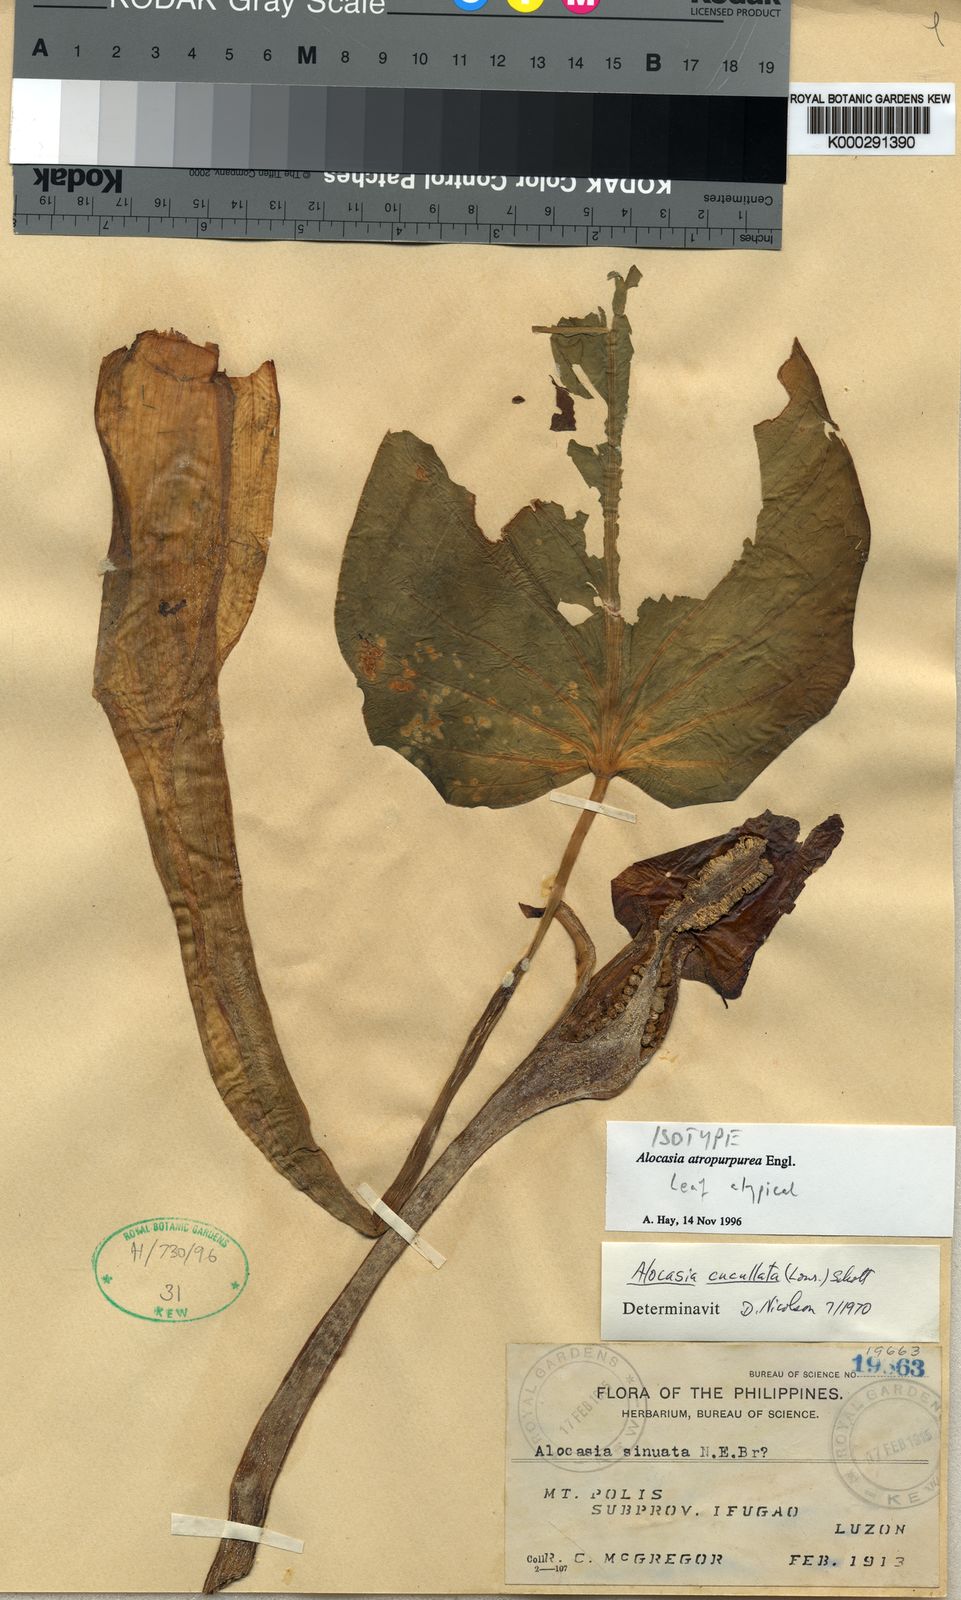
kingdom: Plantae
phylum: Tracheophyta
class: Liliopsida
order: Alismatales
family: Araceae
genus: Alocasia
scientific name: Alocasia atropurpurea
